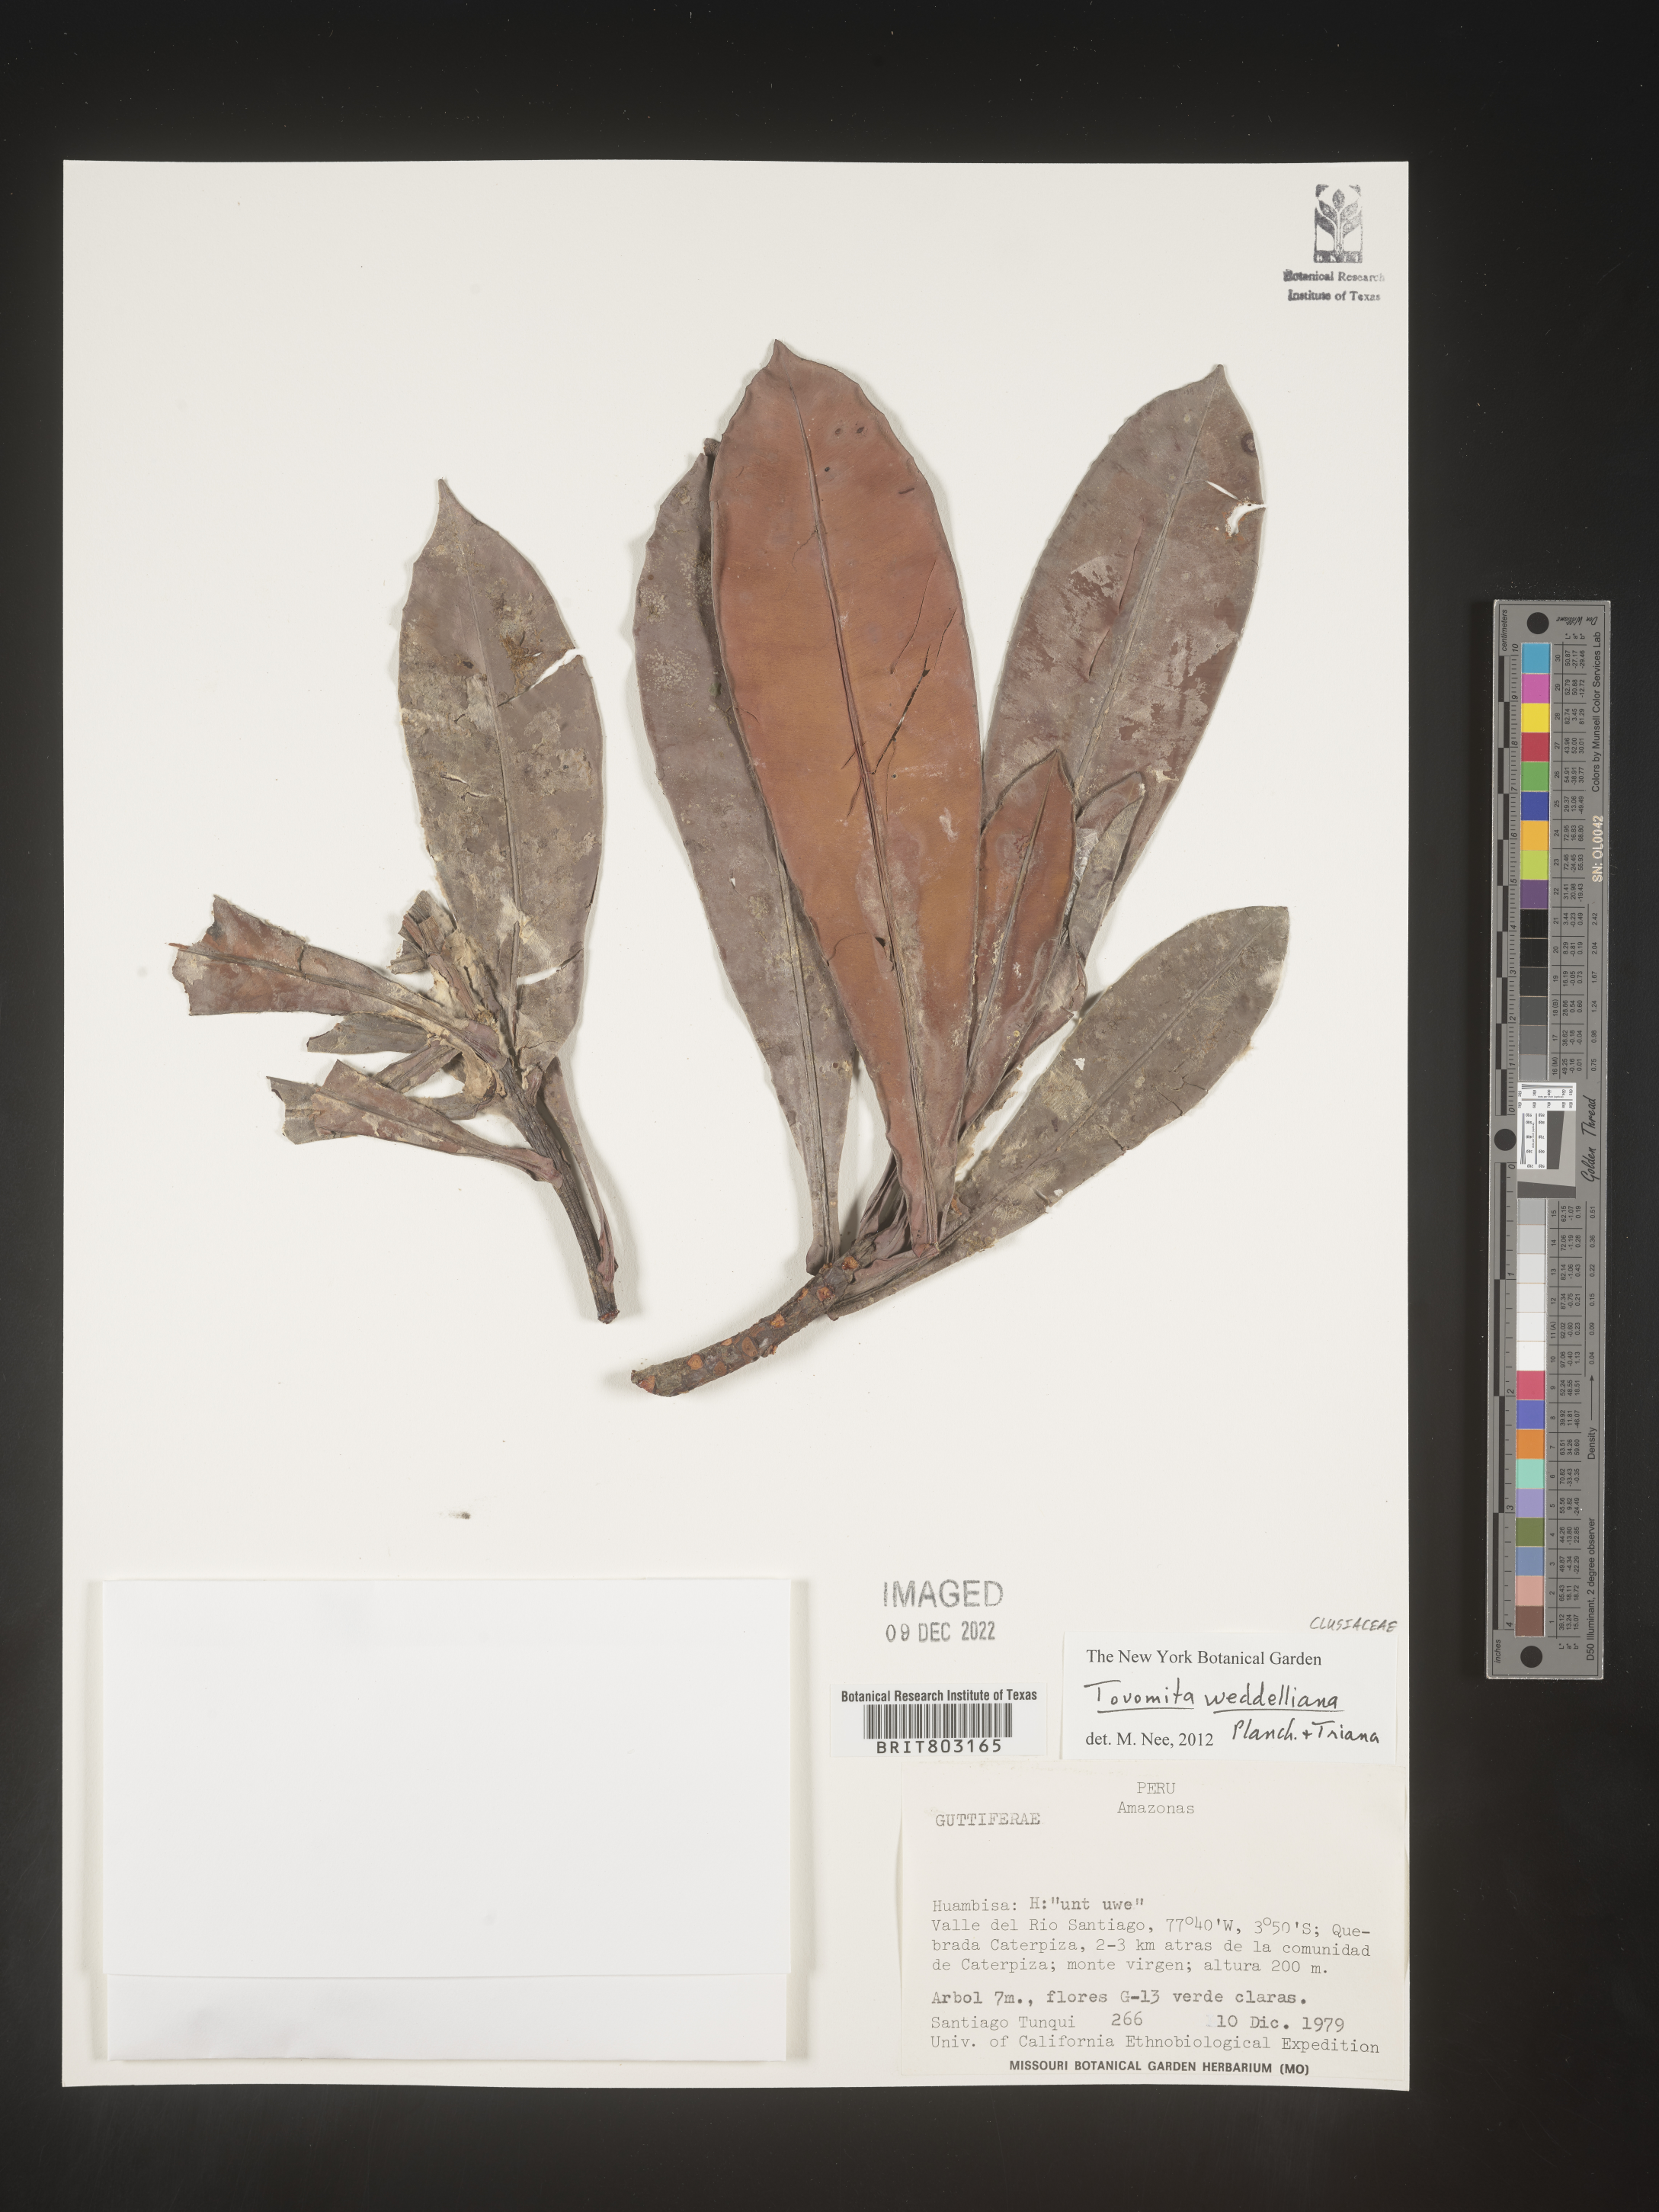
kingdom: Plantae
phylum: Tracheophyta
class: Magnoliopsida
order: Malpighiales
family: Clusiaceae
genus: Arawakia
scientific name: Arawakia weddelliana
